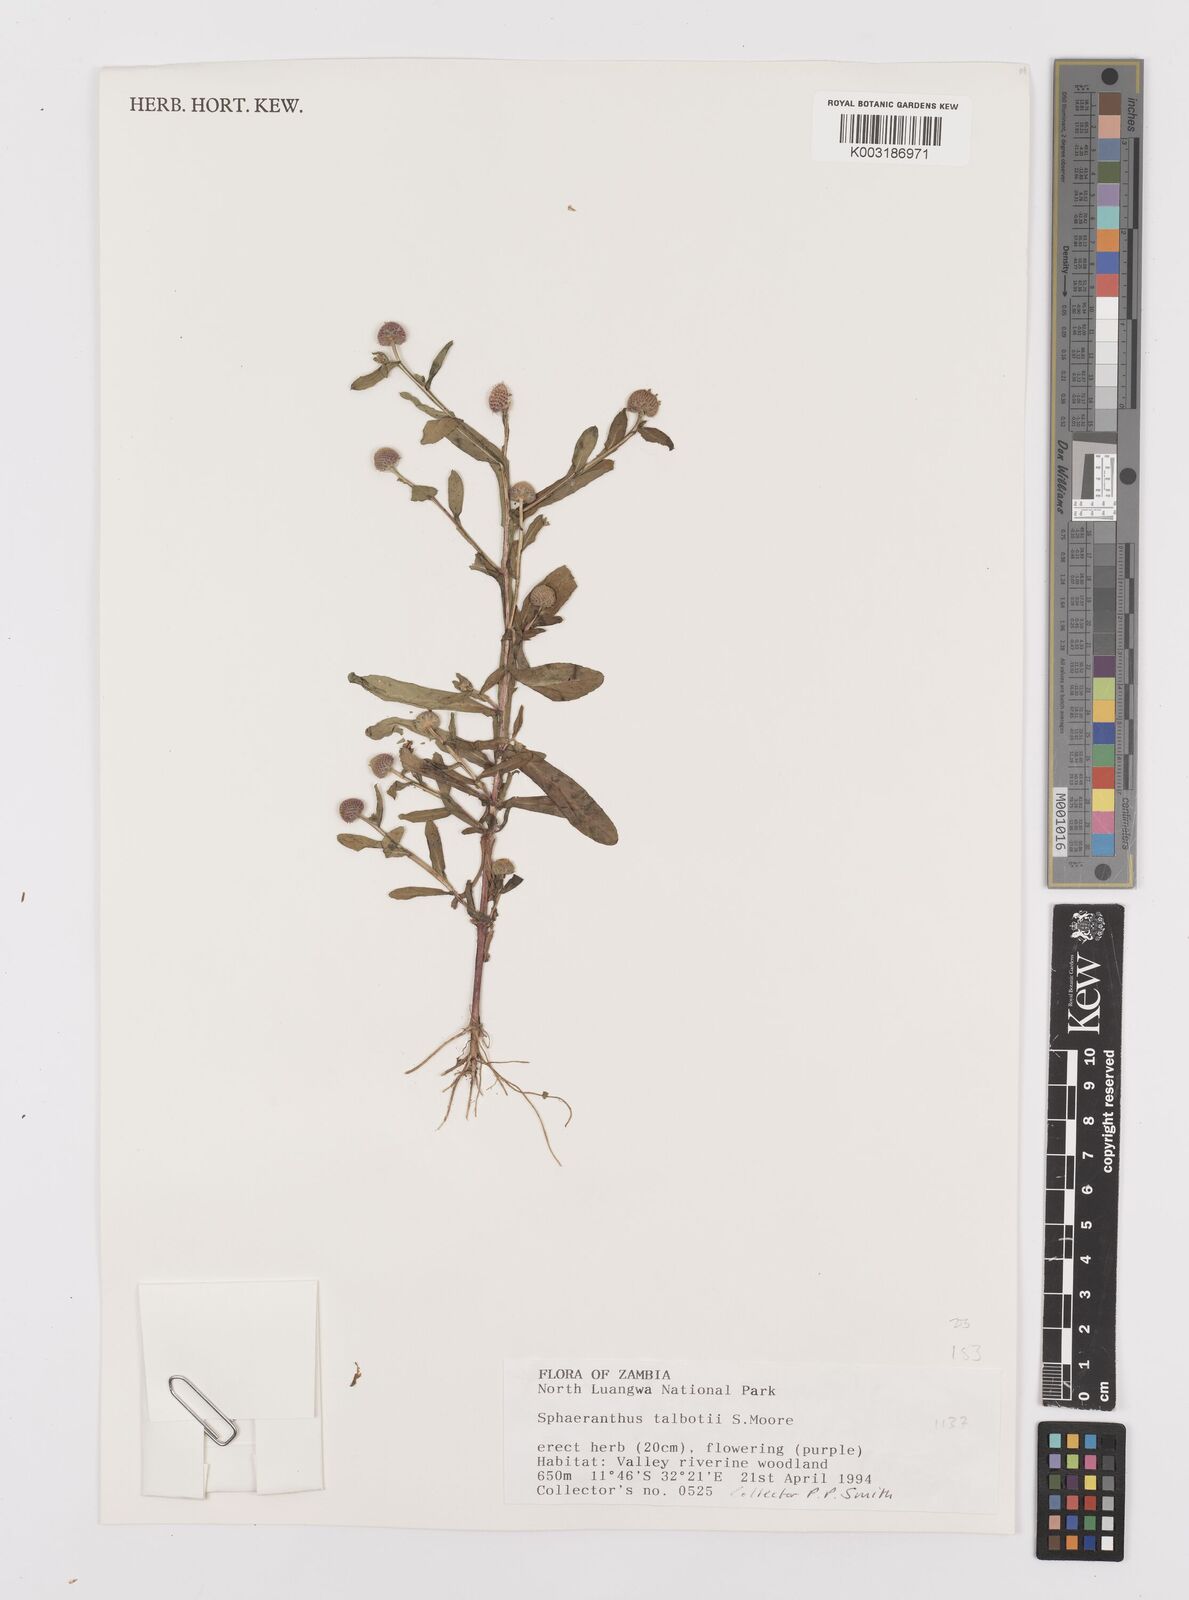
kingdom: Plantae
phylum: Tracheophyta
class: Magnoliopsida
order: Asterales
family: Asteraceae
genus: Sphaeranthus
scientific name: Sphaeranthus talbotii
